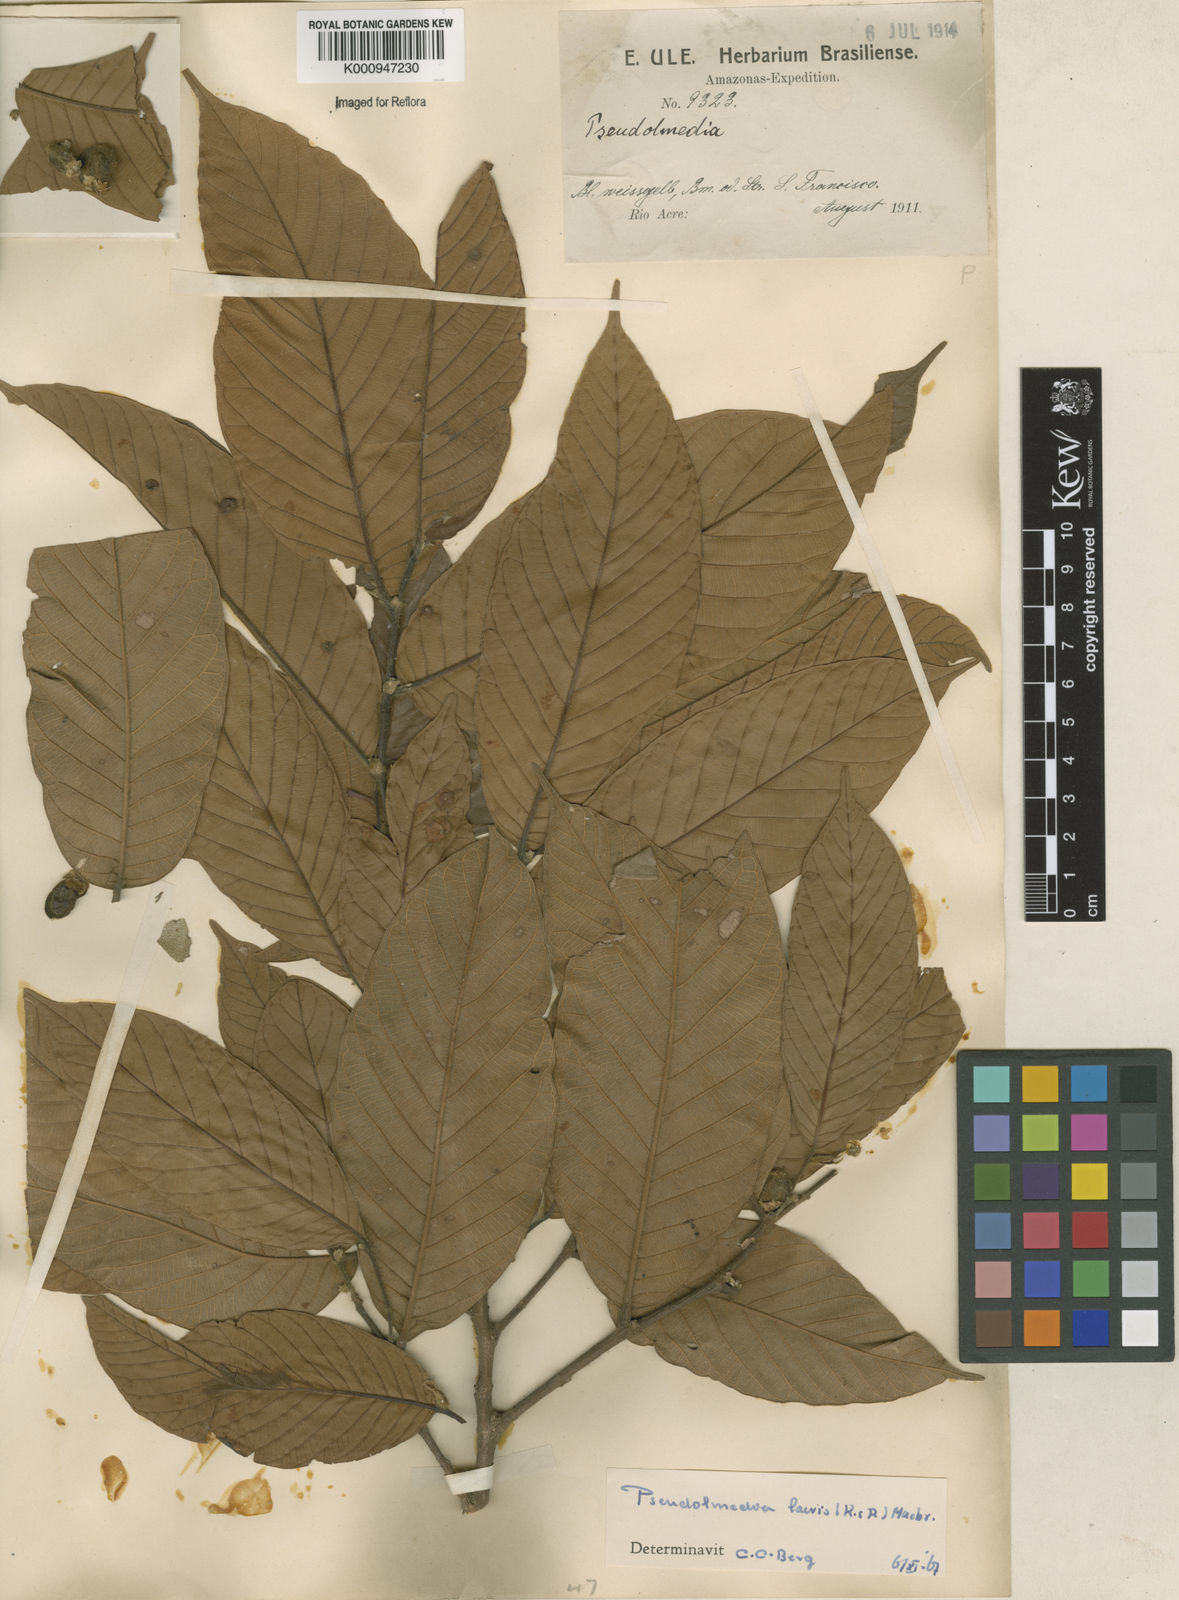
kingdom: Plantae
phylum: Tracheophyta
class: Magnoliopsida
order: Rosales
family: Moraceae
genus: Pseudolmedia
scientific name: Pseudolmedia laevis
